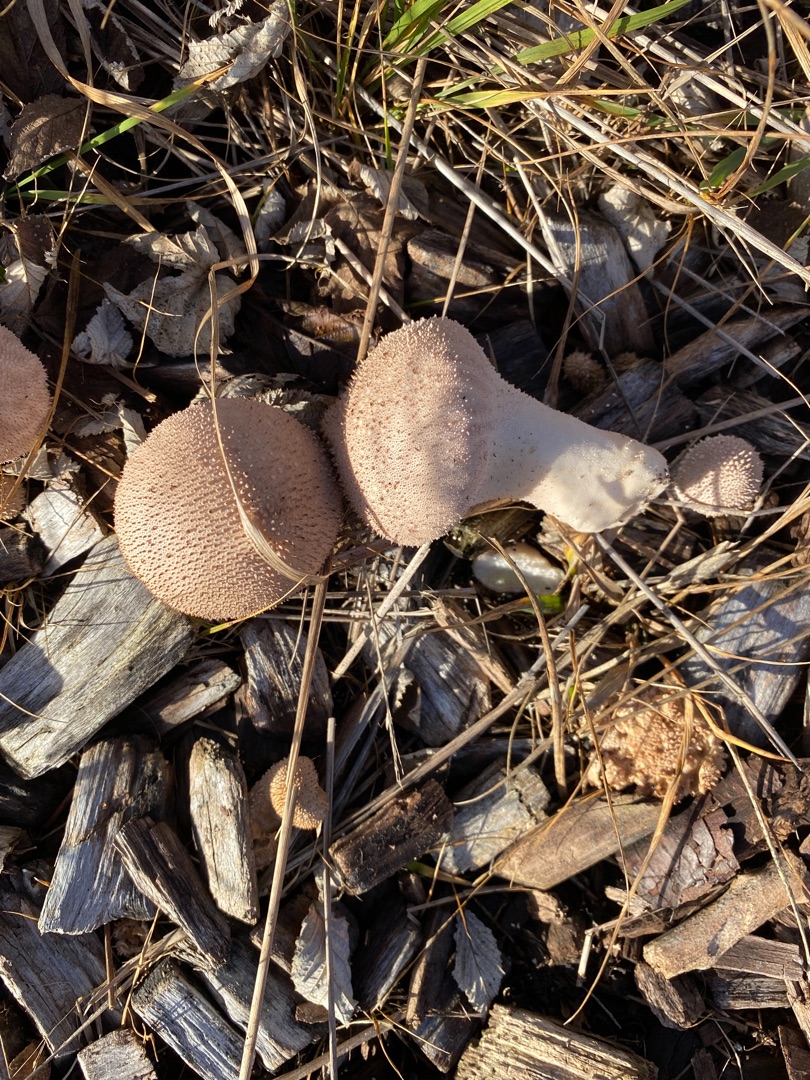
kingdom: Fungi
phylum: Basidiomycota
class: Agaricomycetes
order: Agaricales
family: Lycoperdaceae
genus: Lycoperdon
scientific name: Lycoperdon perlatum
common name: Krystal-støvbold
